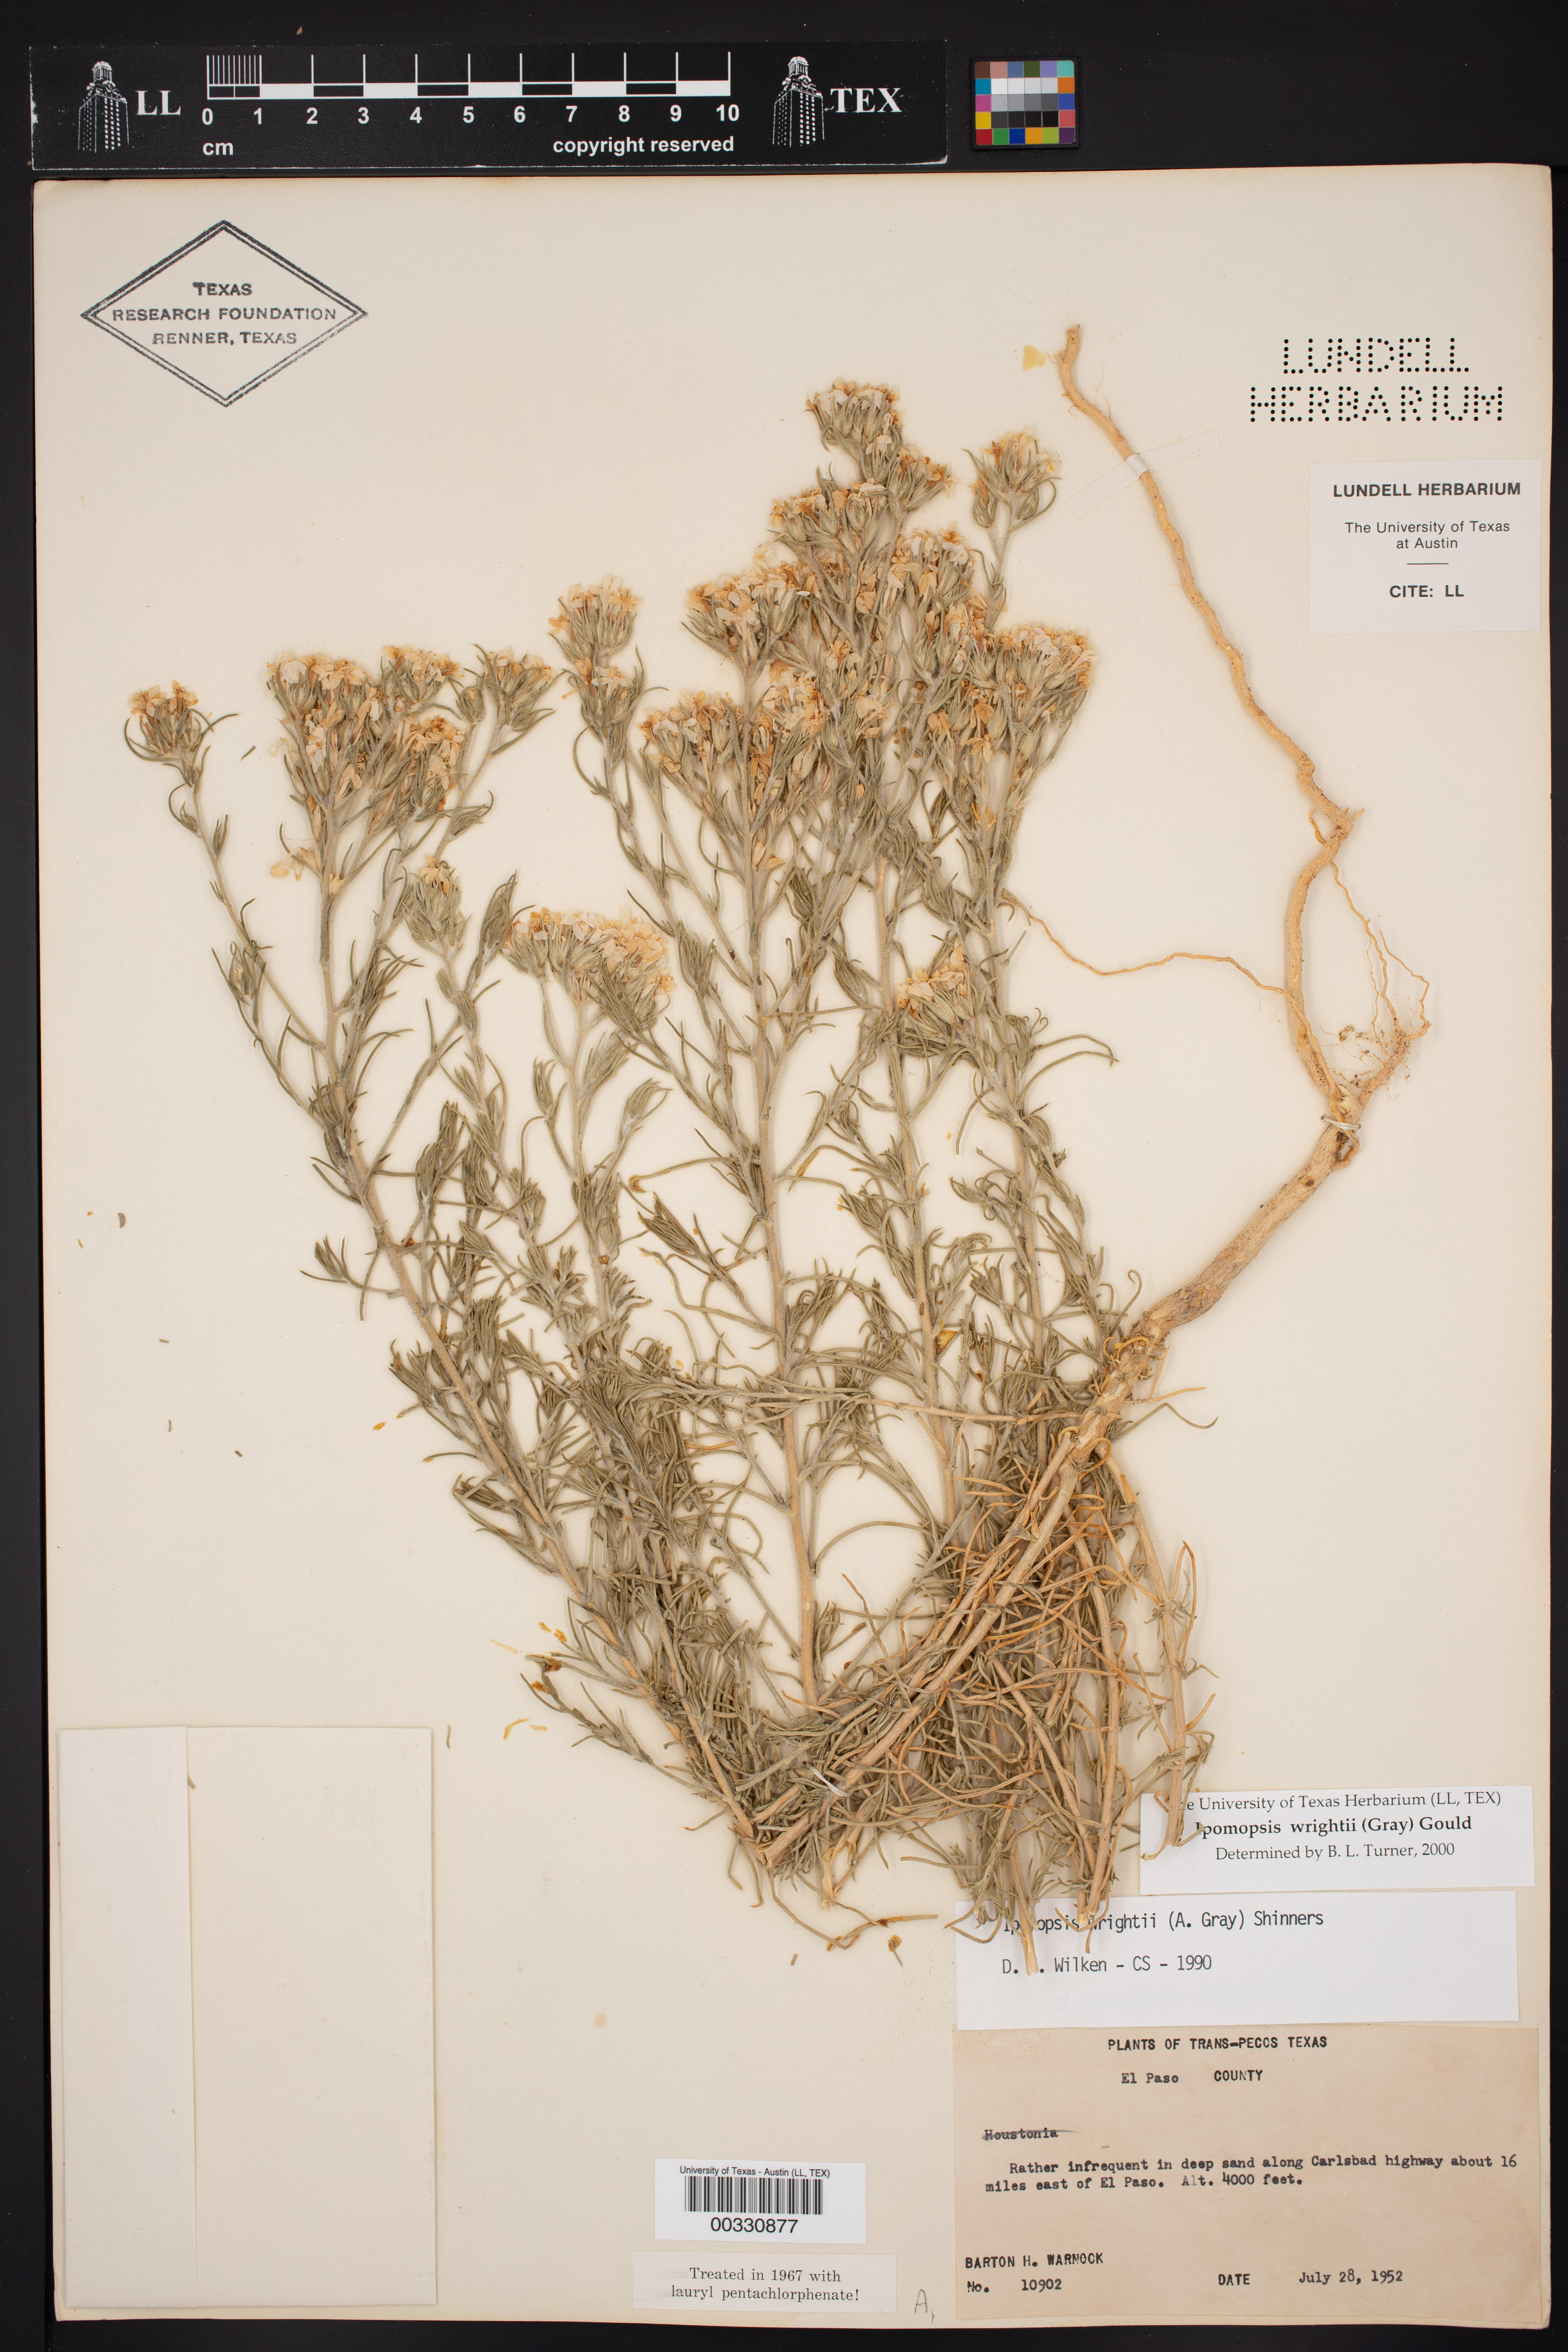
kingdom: Plantae
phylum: Tracheophyta
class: Magnoliopsida
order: Ericales
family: Polemoniaceae
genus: Ipomopsis
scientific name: Ipomopsis wrightii
